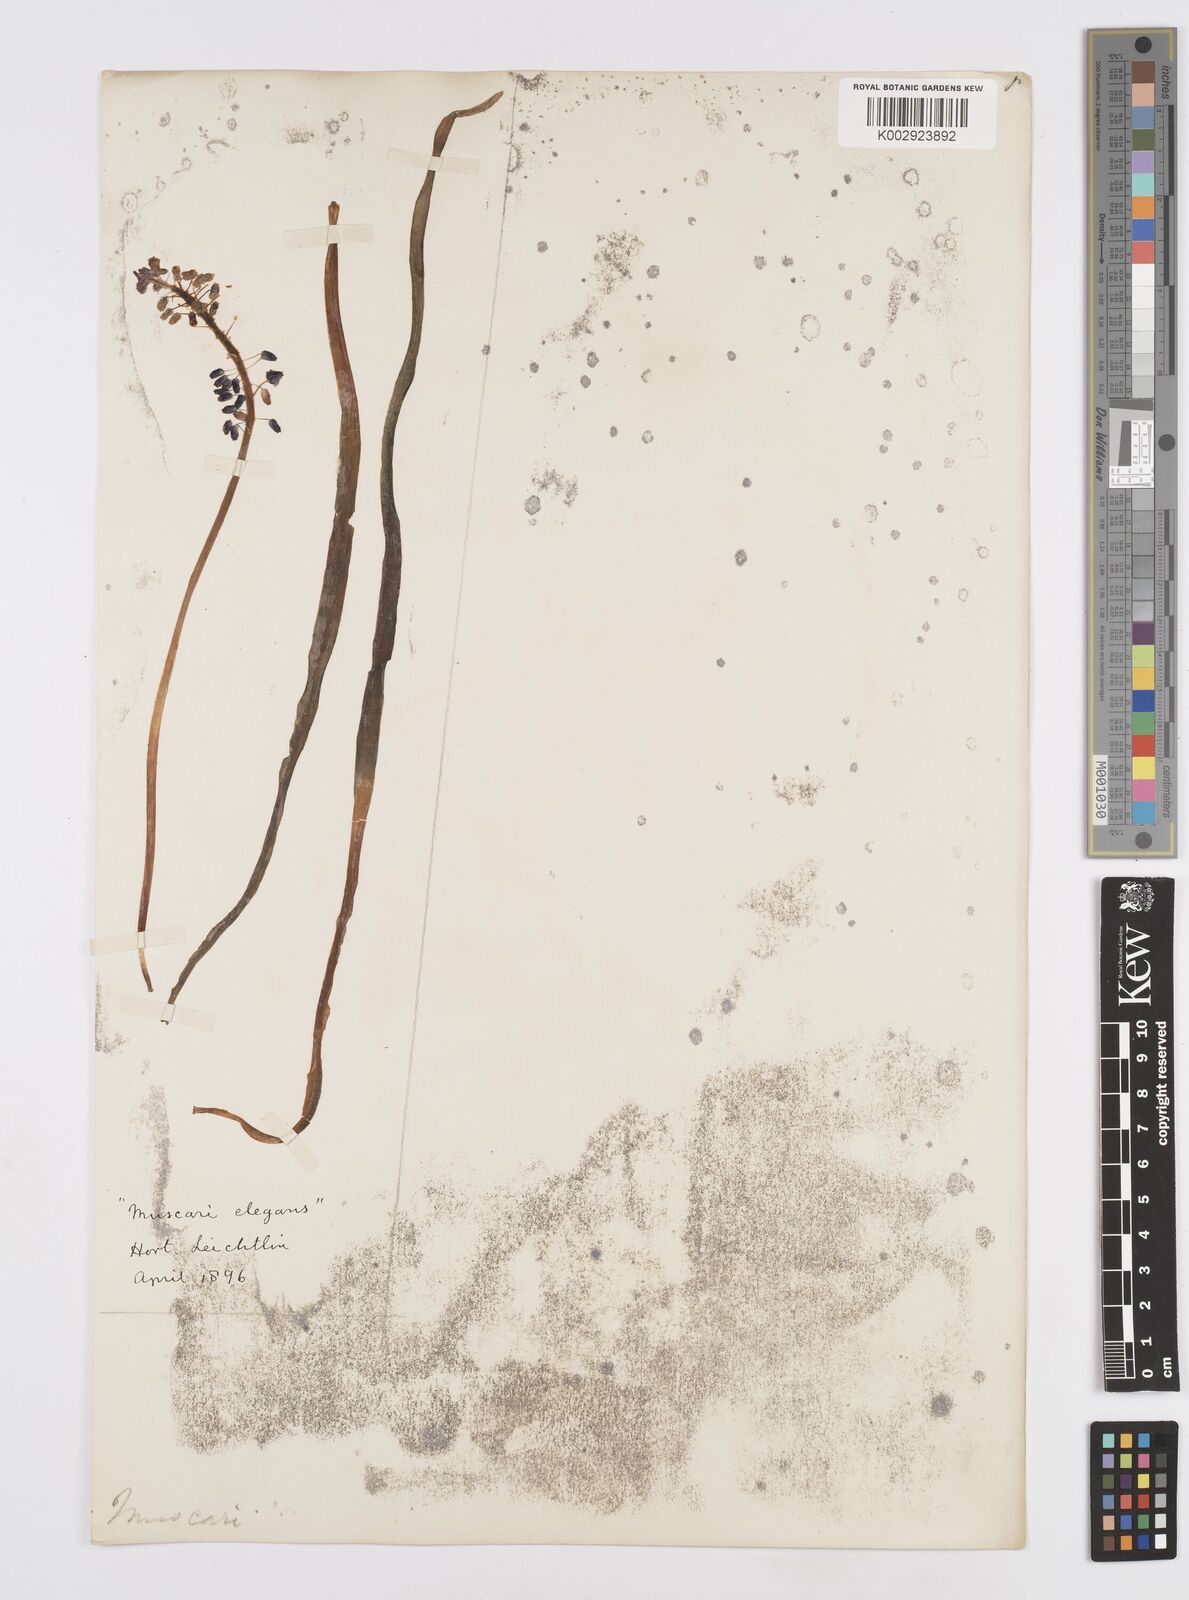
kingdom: Plantae
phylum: Tracheophyta
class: Liliopsida
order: Asparagales
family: Asparagaceae
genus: Muscari
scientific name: Muscari
